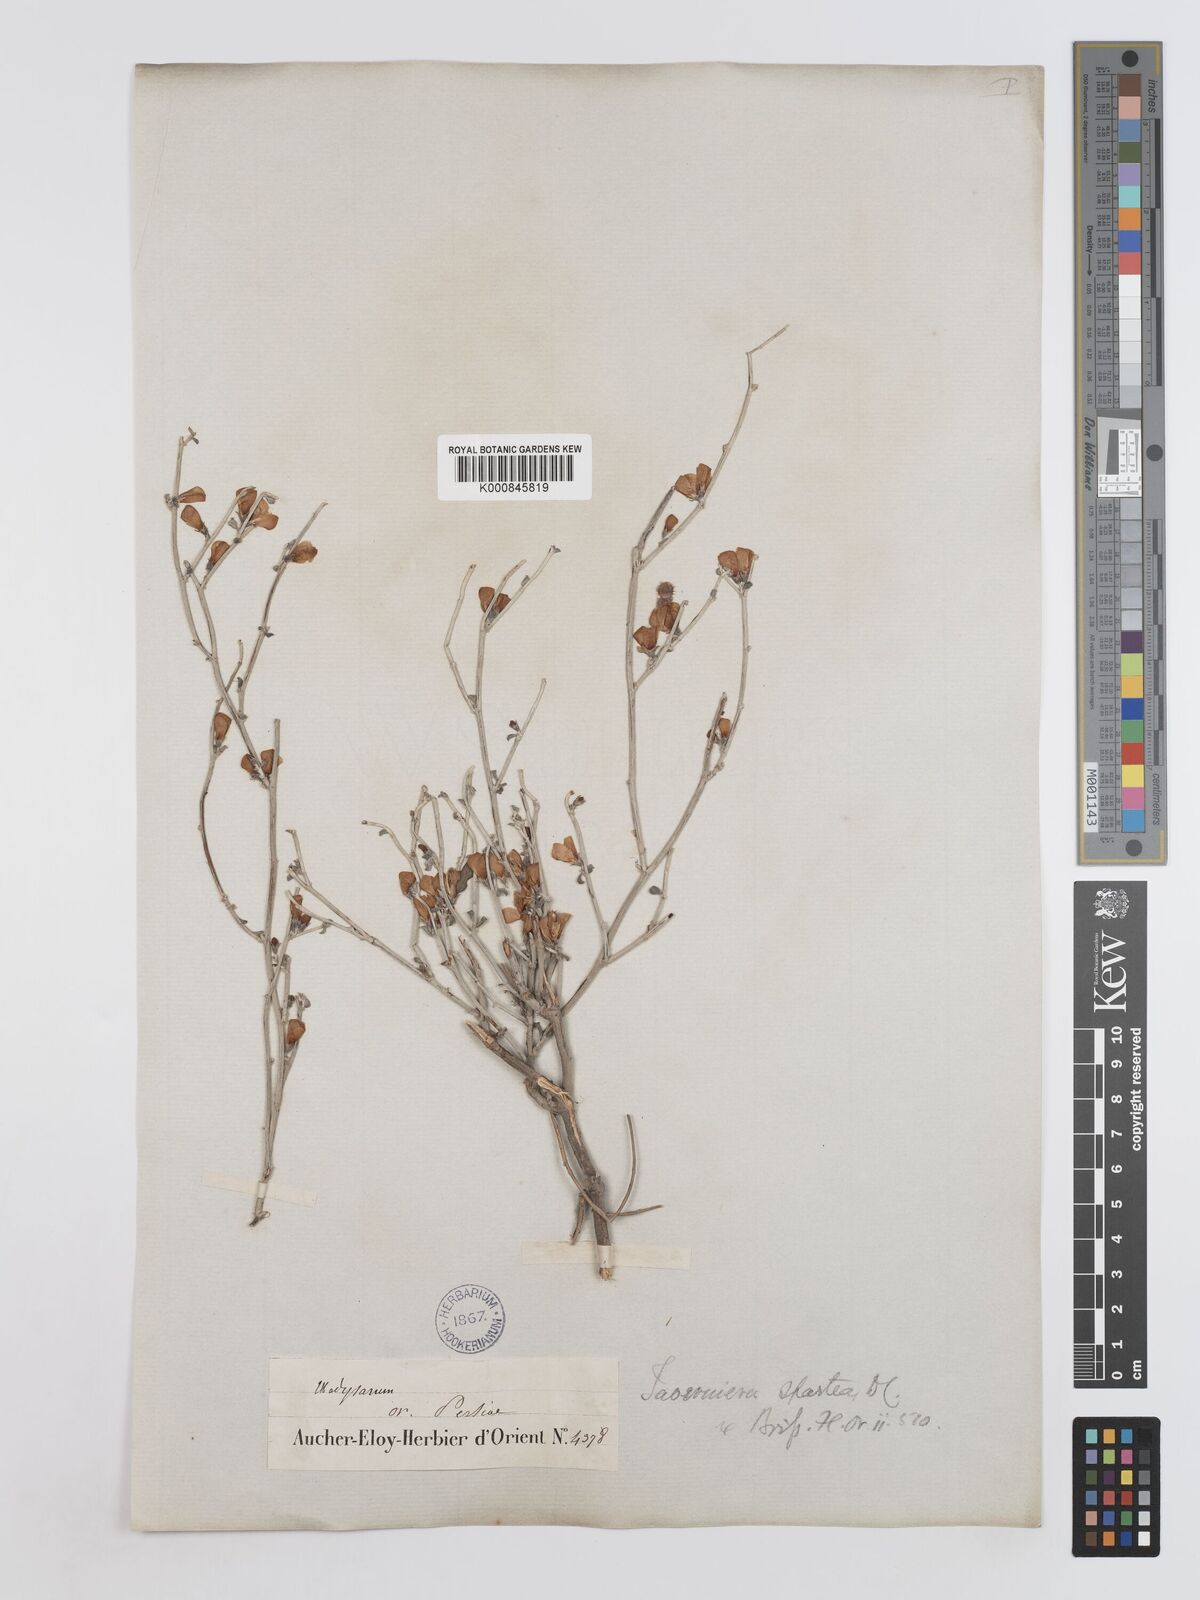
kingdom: Plantae
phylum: Tracheophyta
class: Magnoliopsida
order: Fabales
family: Fabaceae
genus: Taverniera
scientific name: Taverniera spartea
